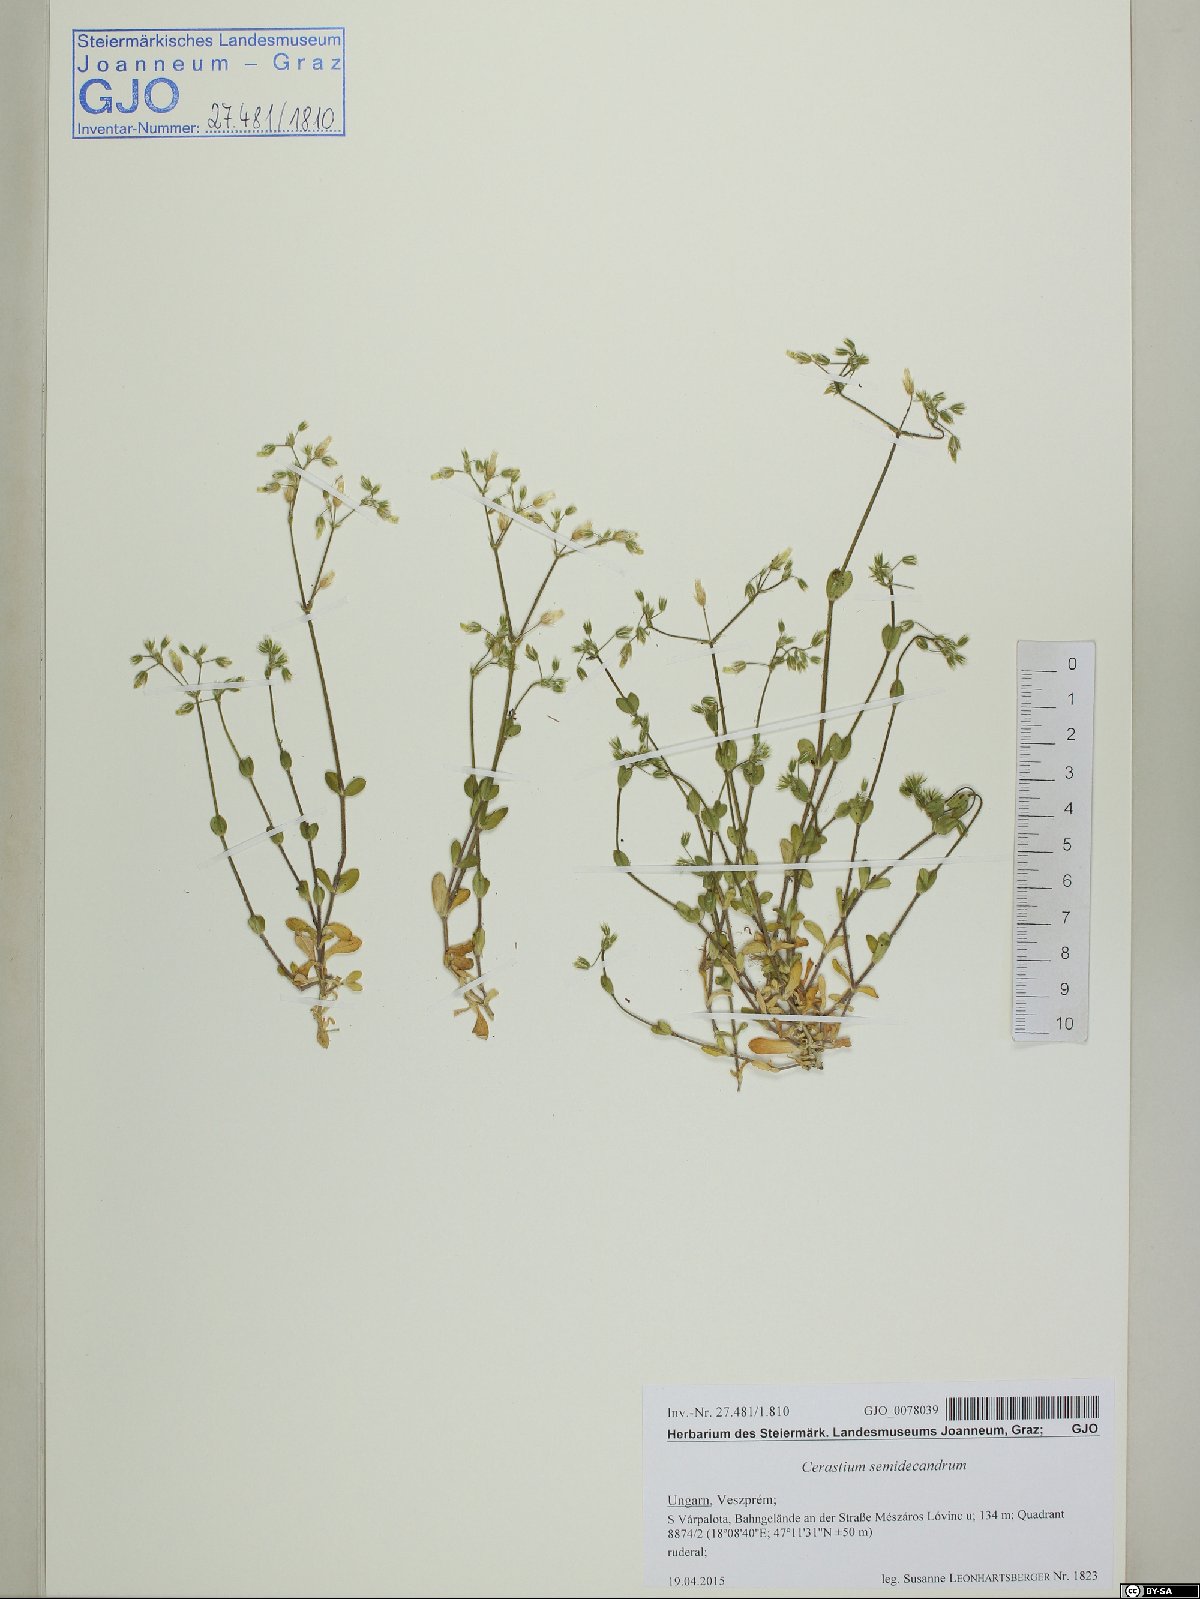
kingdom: Plantae
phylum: Tracheophyta
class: Magnoliopsida
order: Caryophyllales
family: Caryophyllaceae
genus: Cerastium
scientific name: Cerastium semidecandrum
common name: Little mouse-ear
